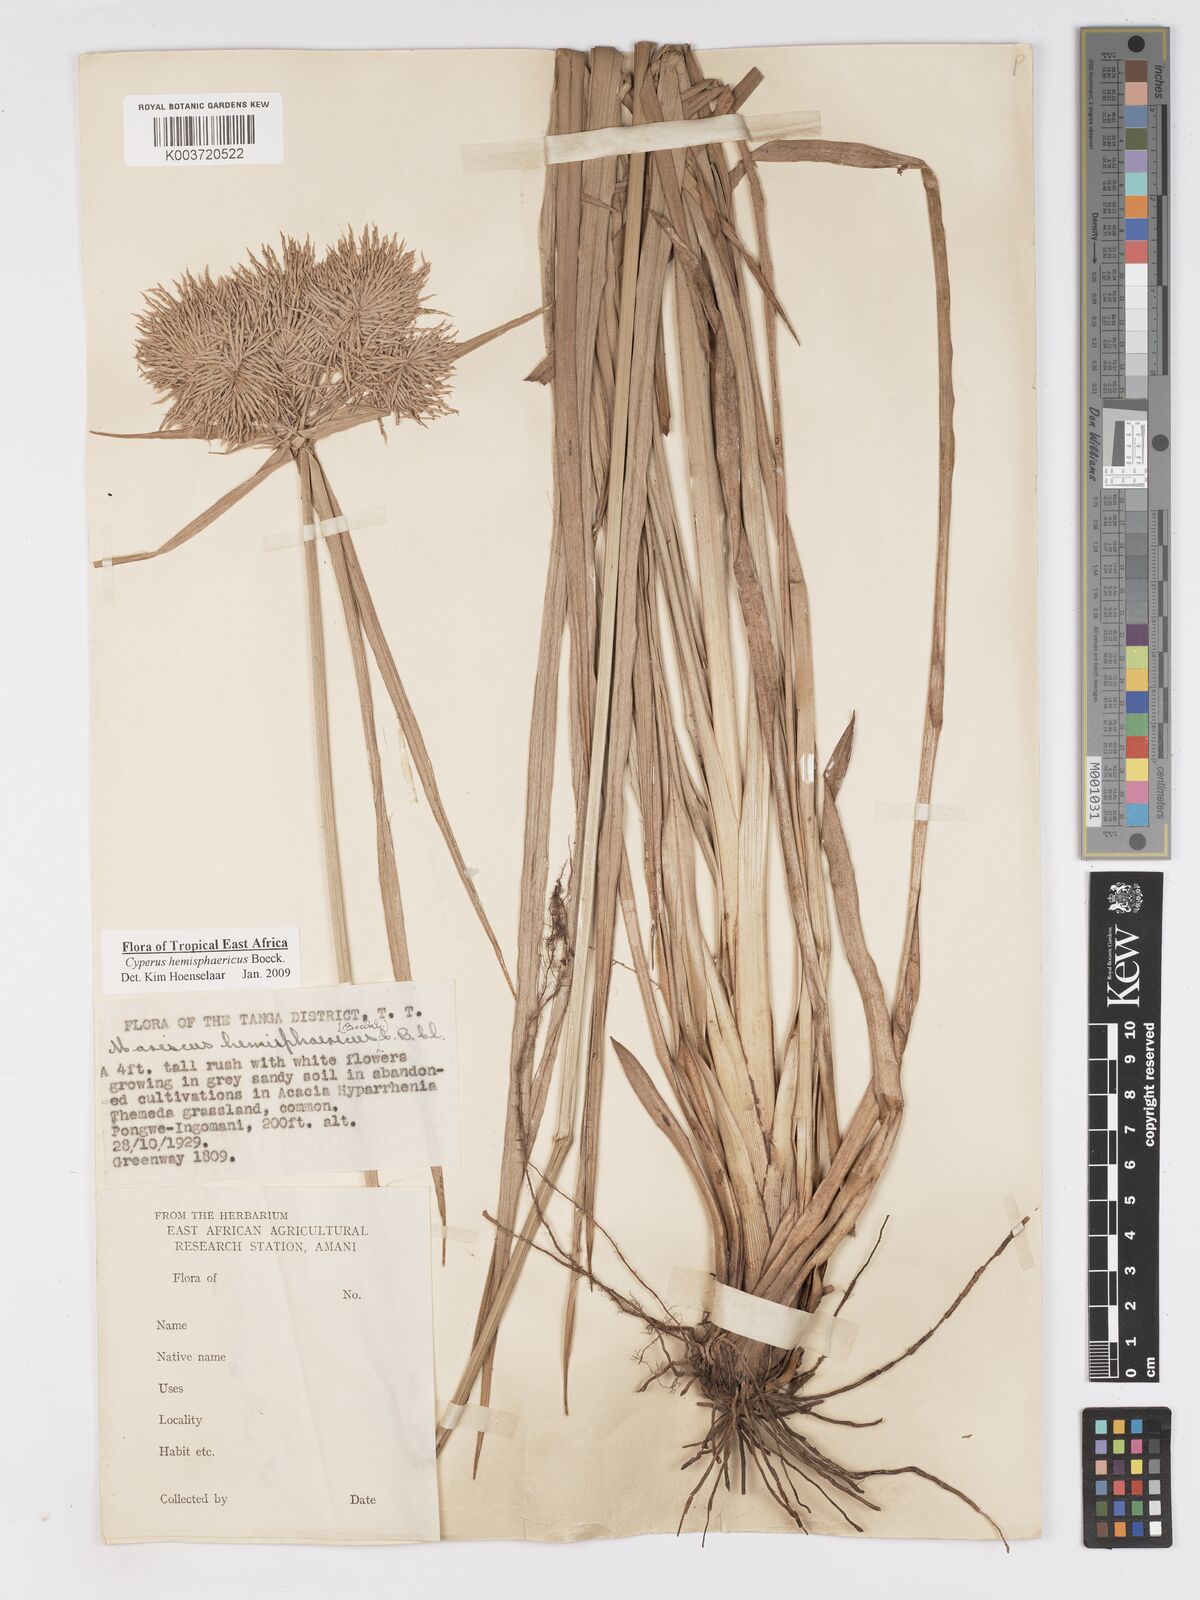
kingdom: Plantae
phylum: Tracheophyta
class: Liliopsida
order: Poales
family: Cyperaceae
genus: Cyperus
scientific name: Cyperus hemisphaericus
